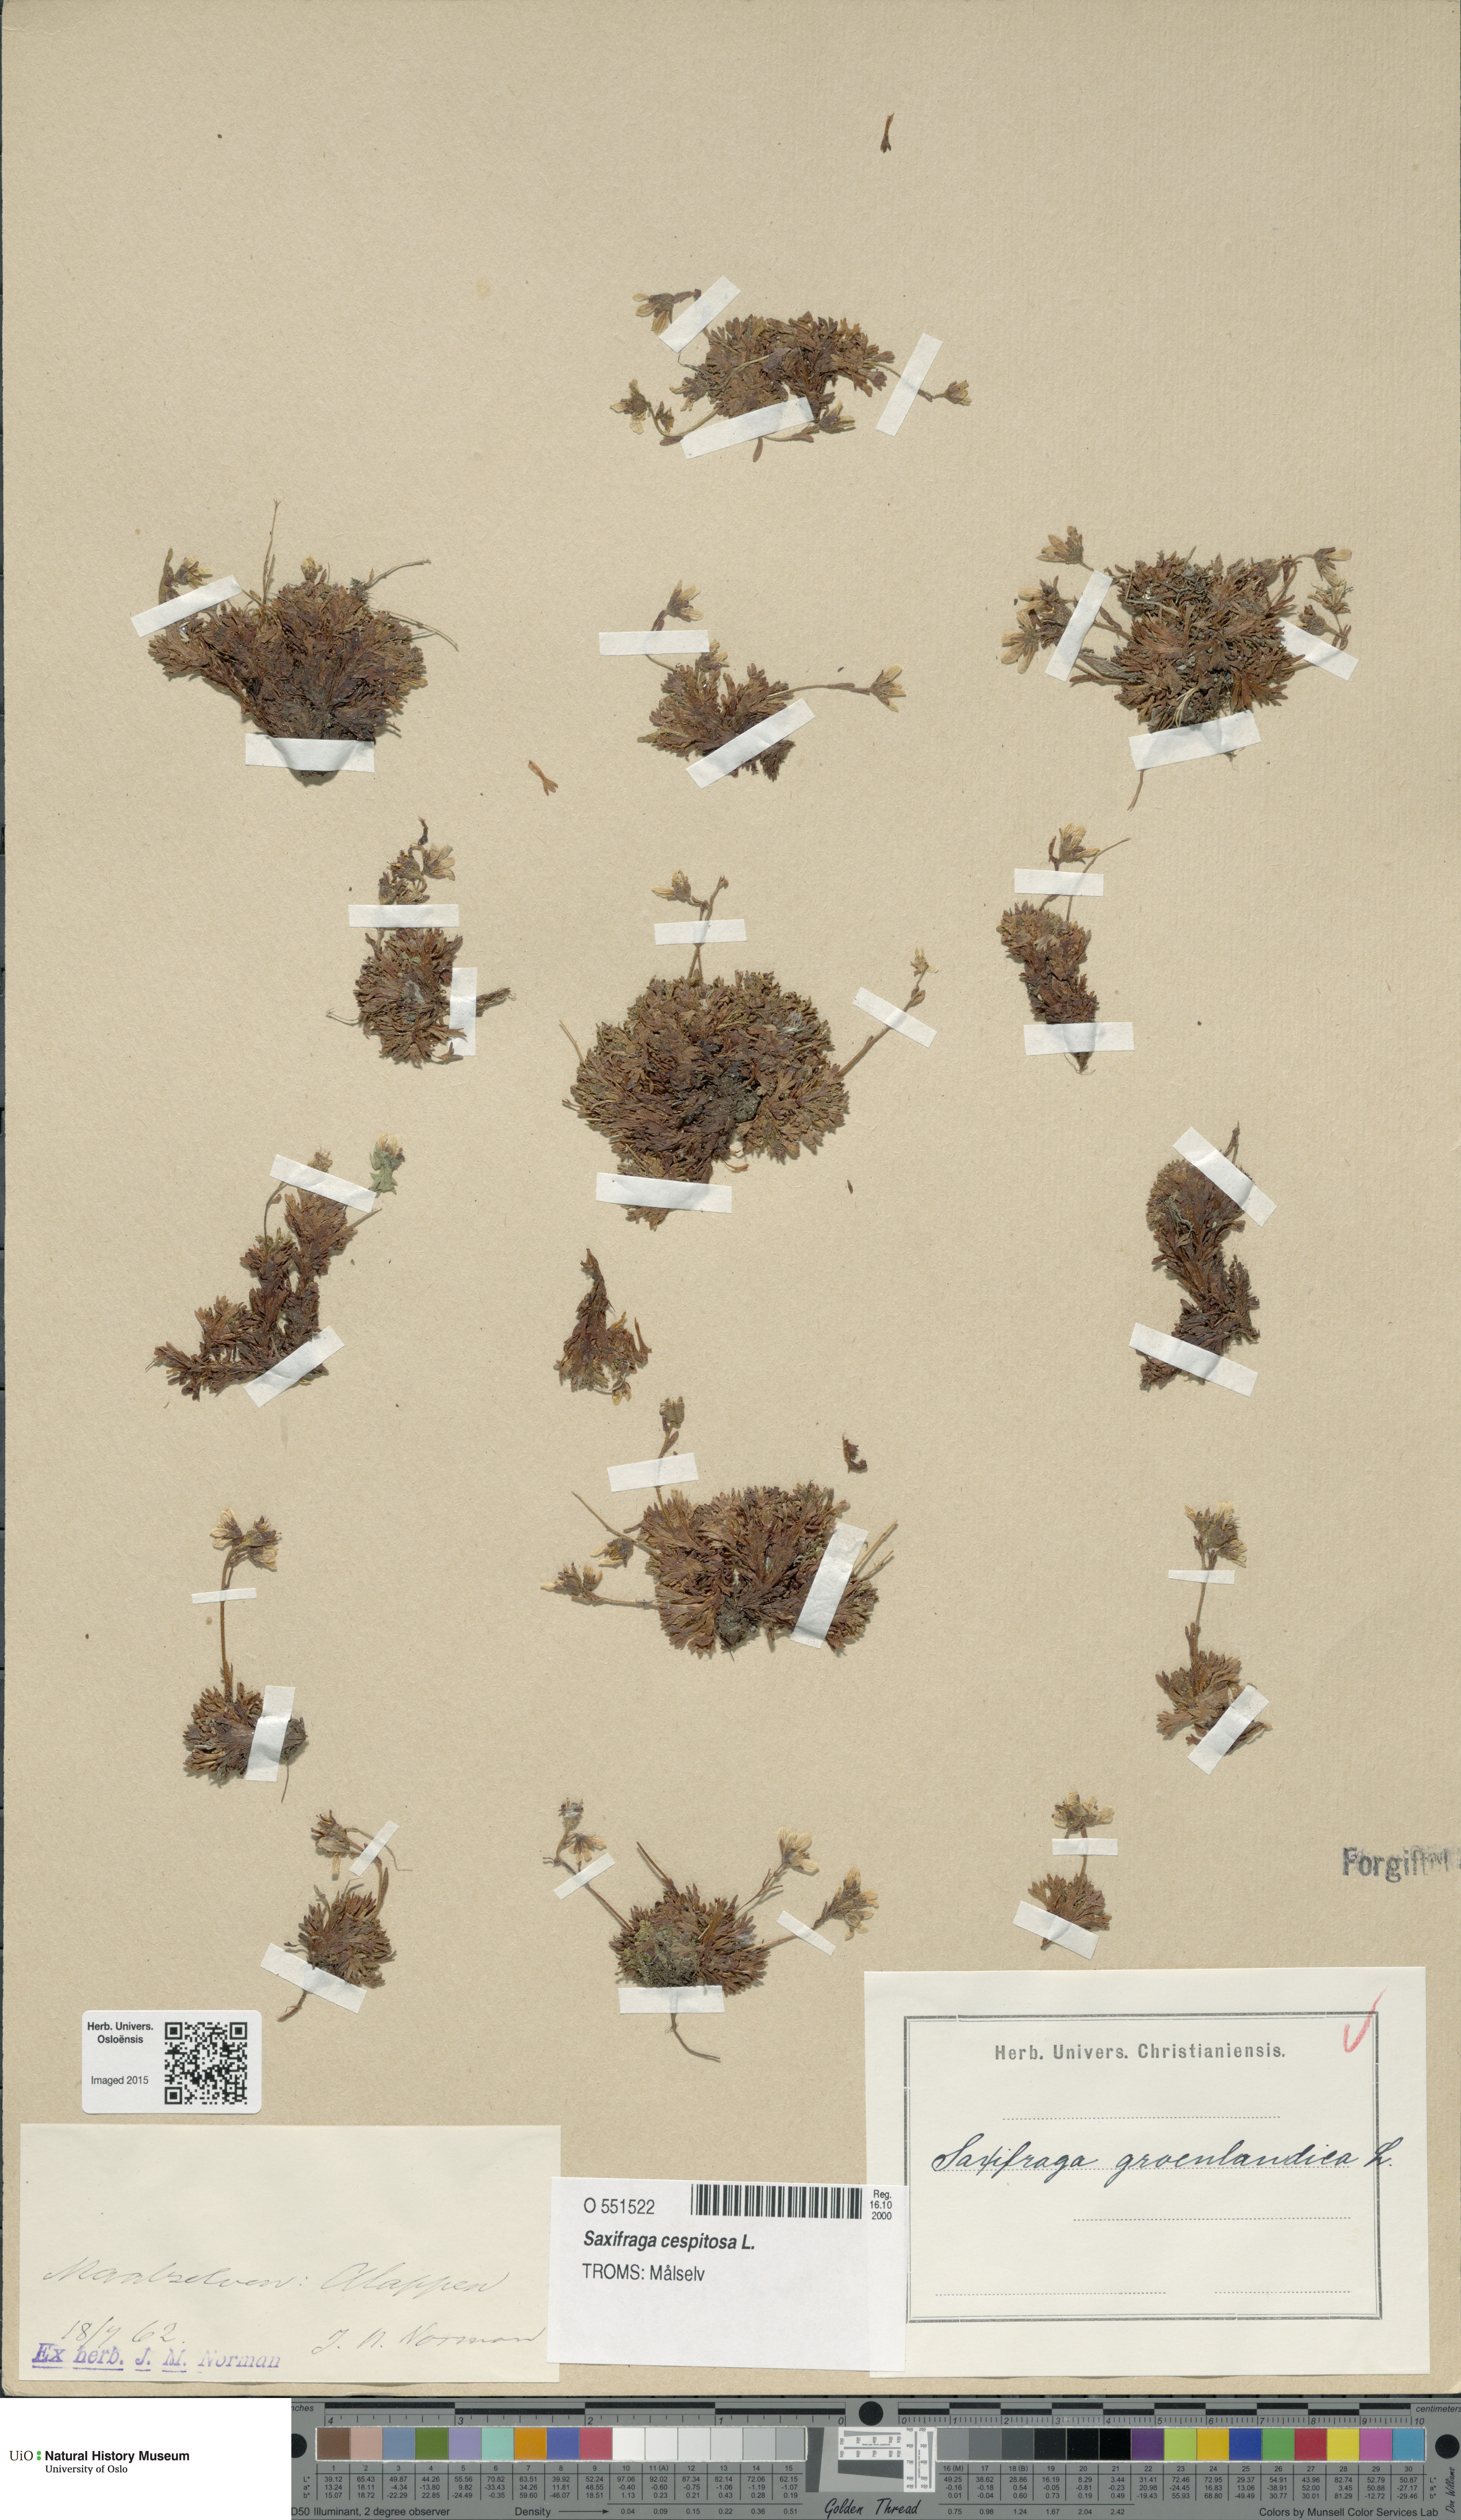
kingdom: Plantae
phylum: Tracheophyta
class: Magnoliopsida
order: Saxifragales
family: Saxifragaceae
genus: Saxifraga
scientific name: Saxifraga cespitosa
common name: Tufted saxifrage
